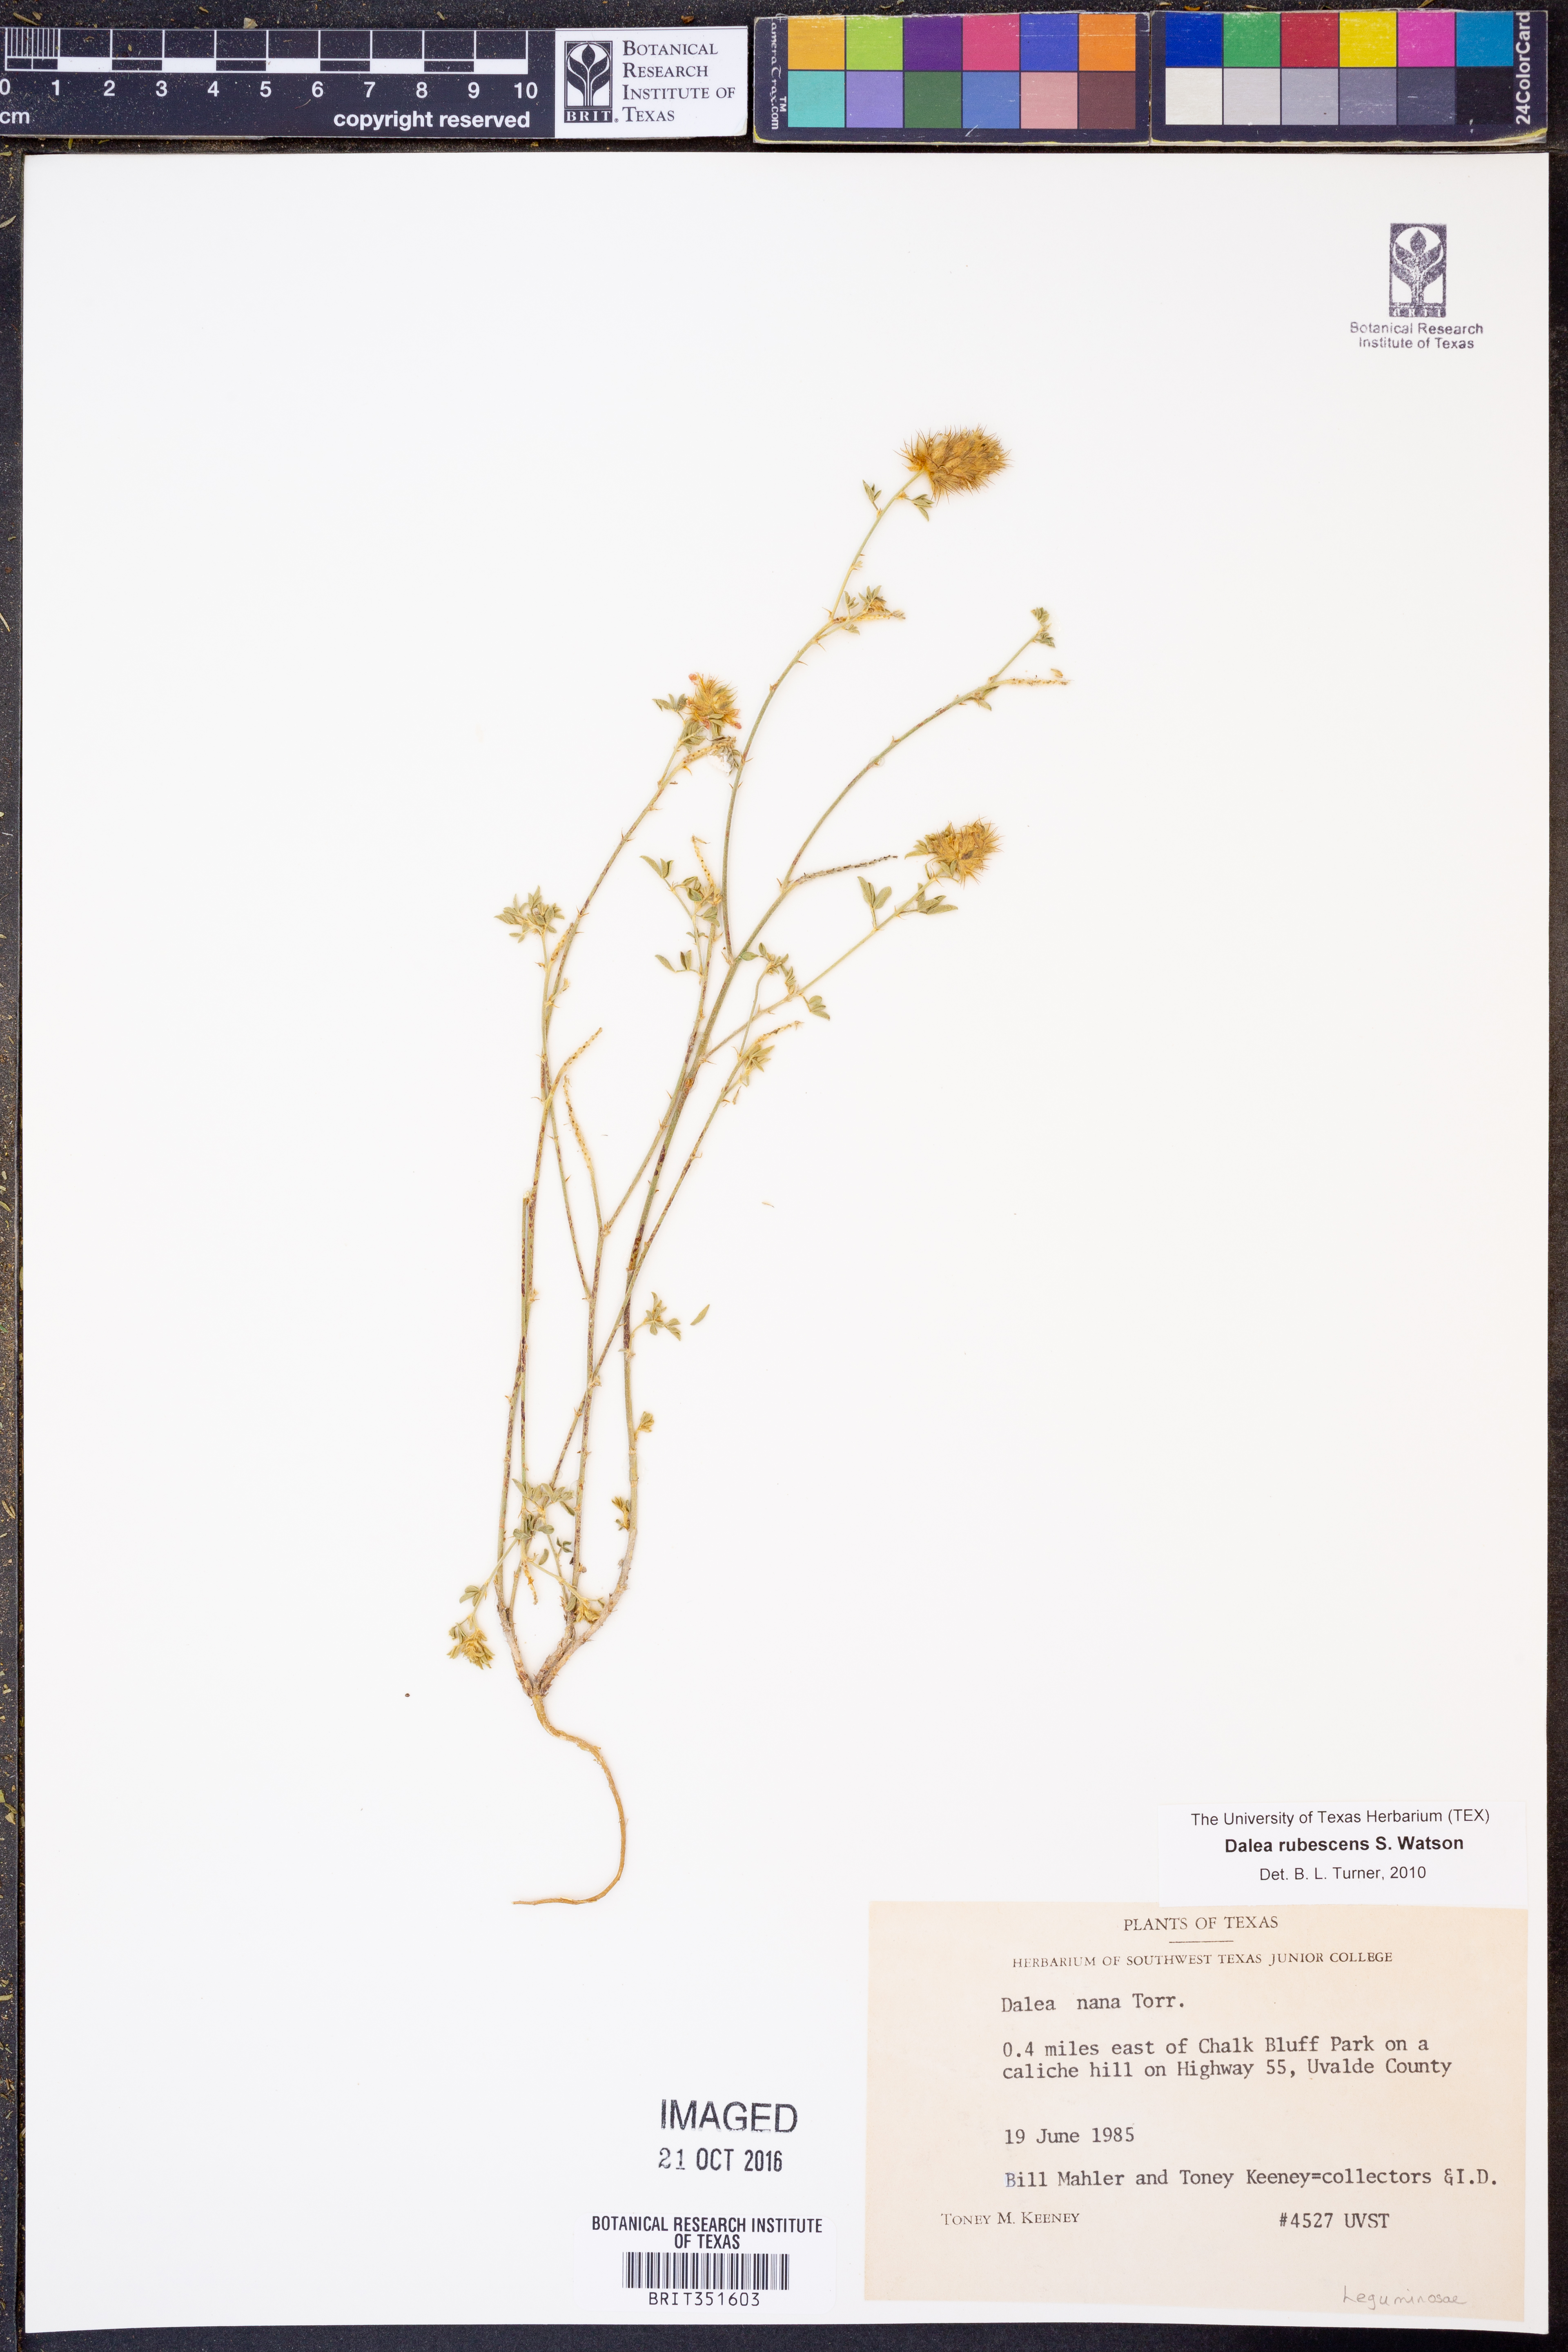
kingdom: Plantae
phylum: Tracheophyta
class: Magnoliopsida
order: Fabales
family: Fabaceae
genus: Dalea
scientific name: Dalea rubescens
